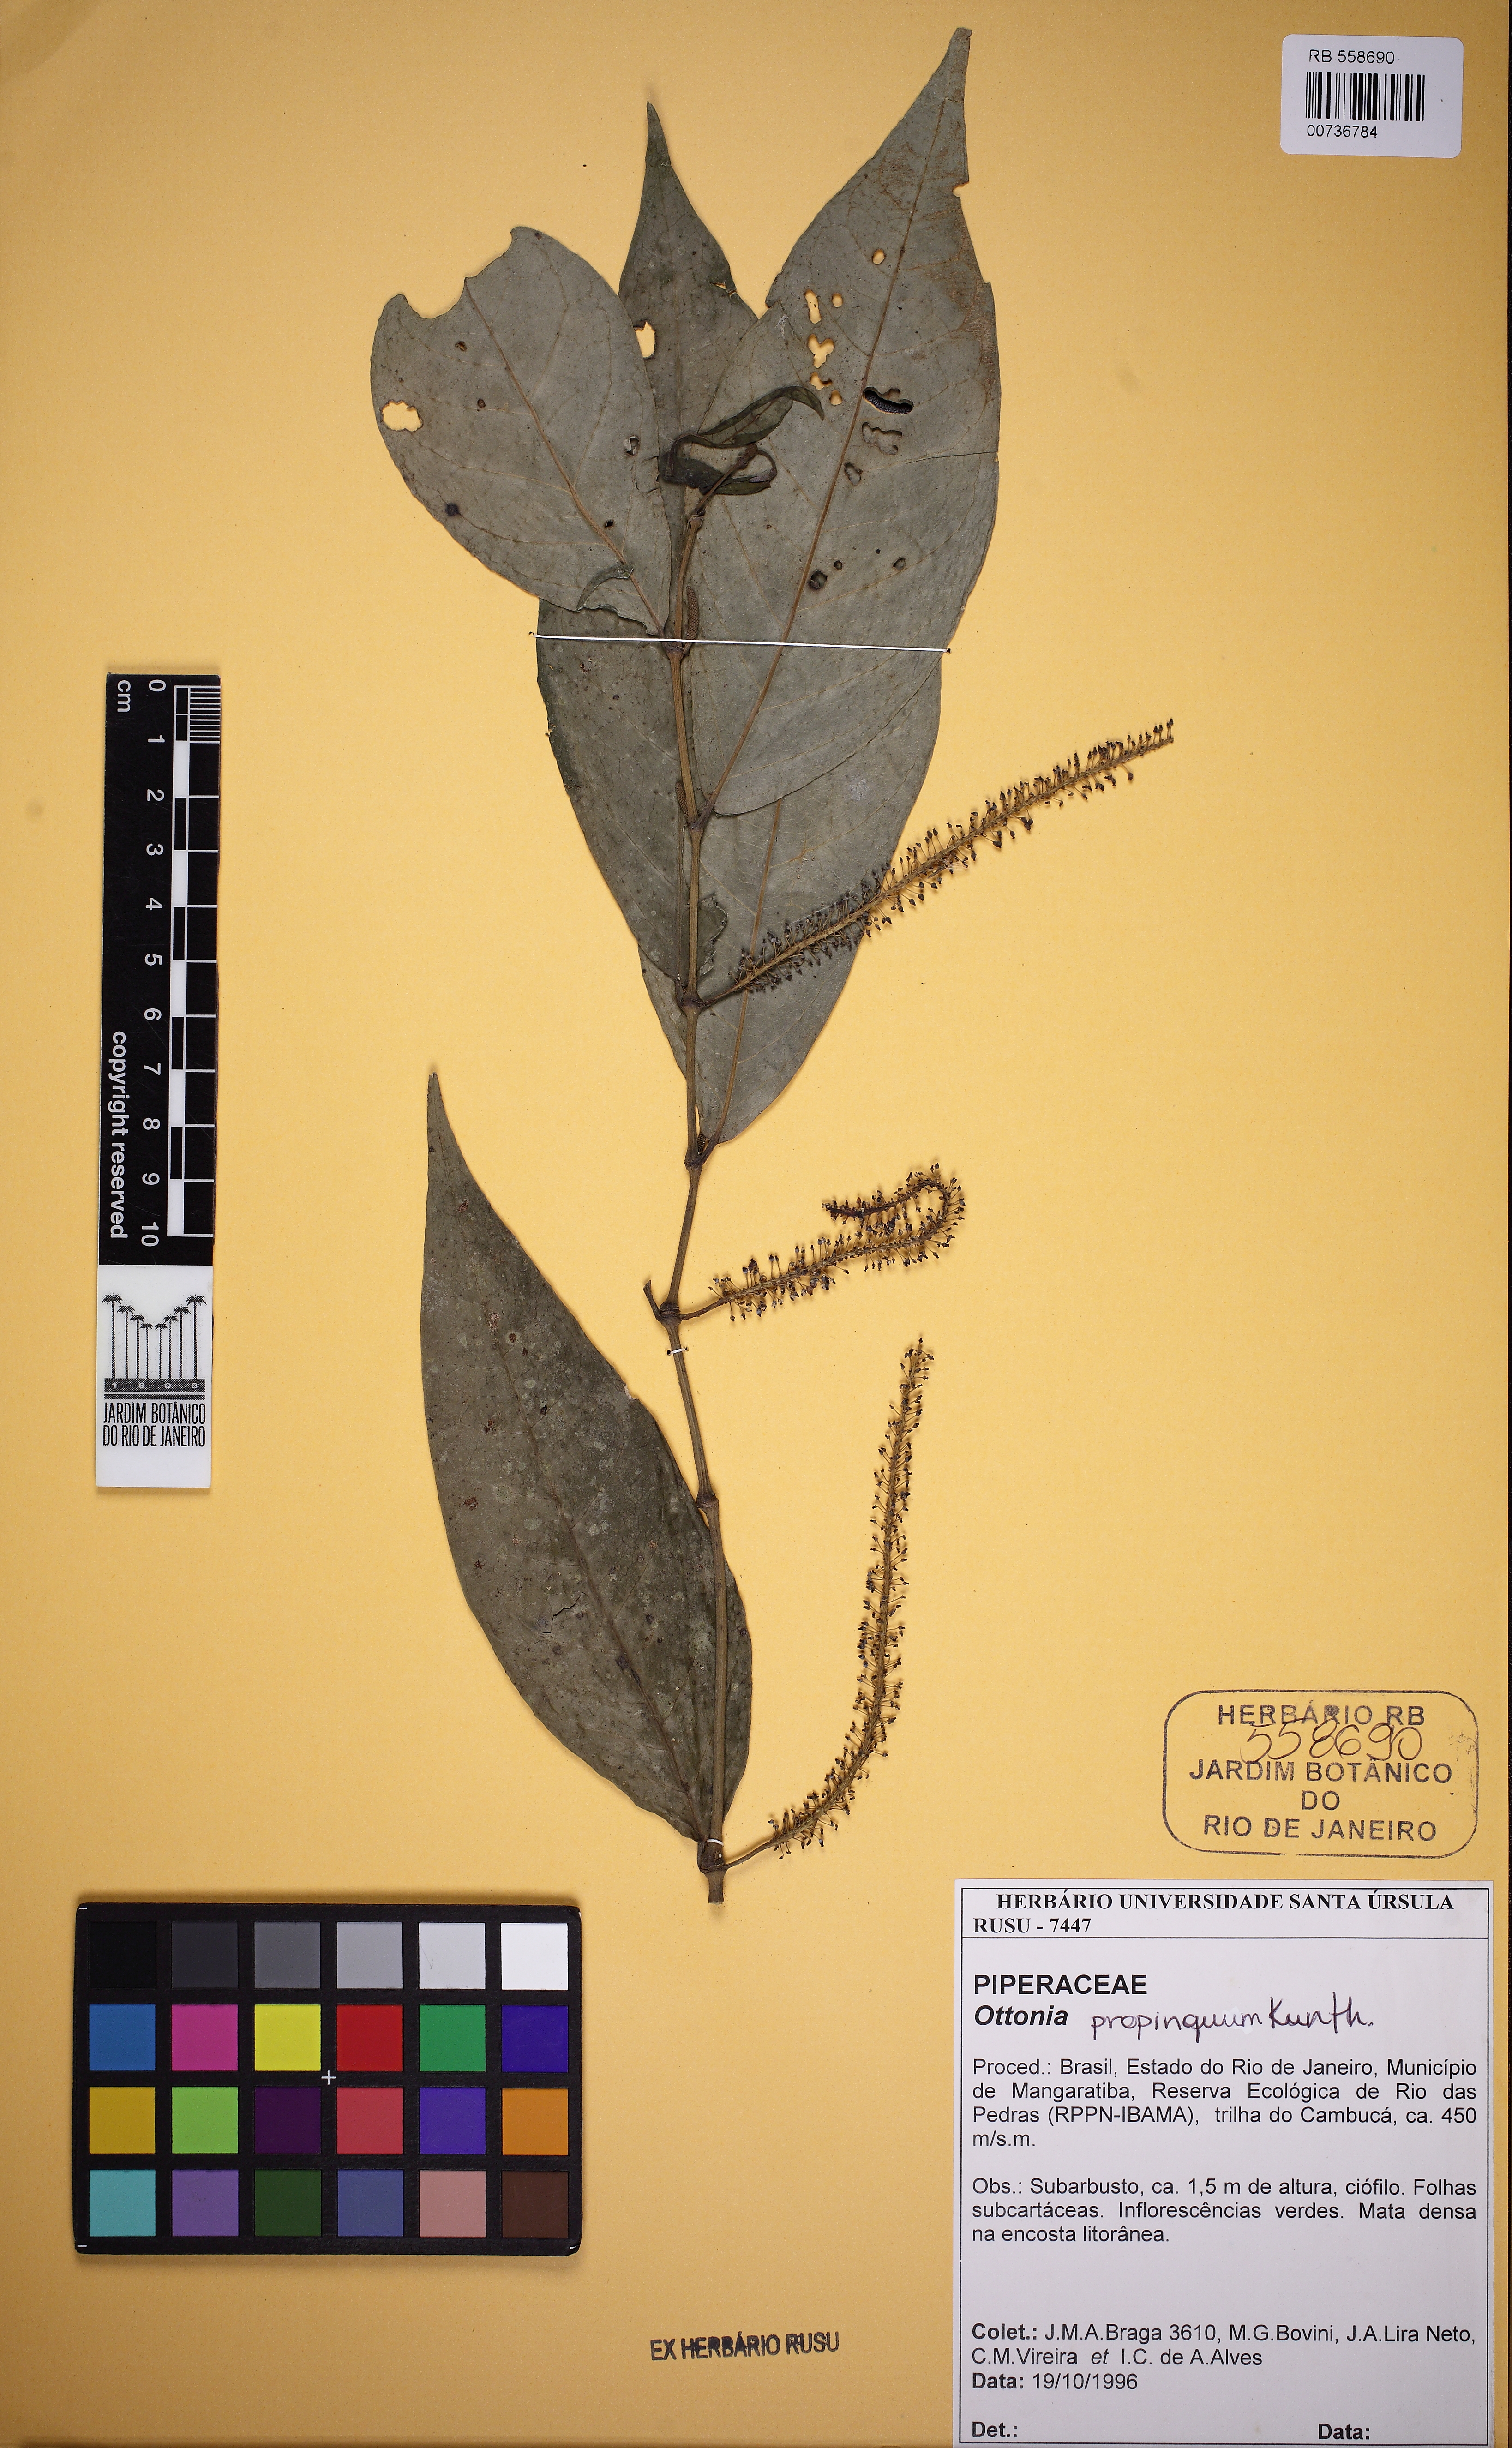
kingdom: Plantae
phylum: Tracheophyta
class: Magnoliopsida
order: Piperales
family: Piperaceae
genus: Piper
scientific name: Piper corcovadense
